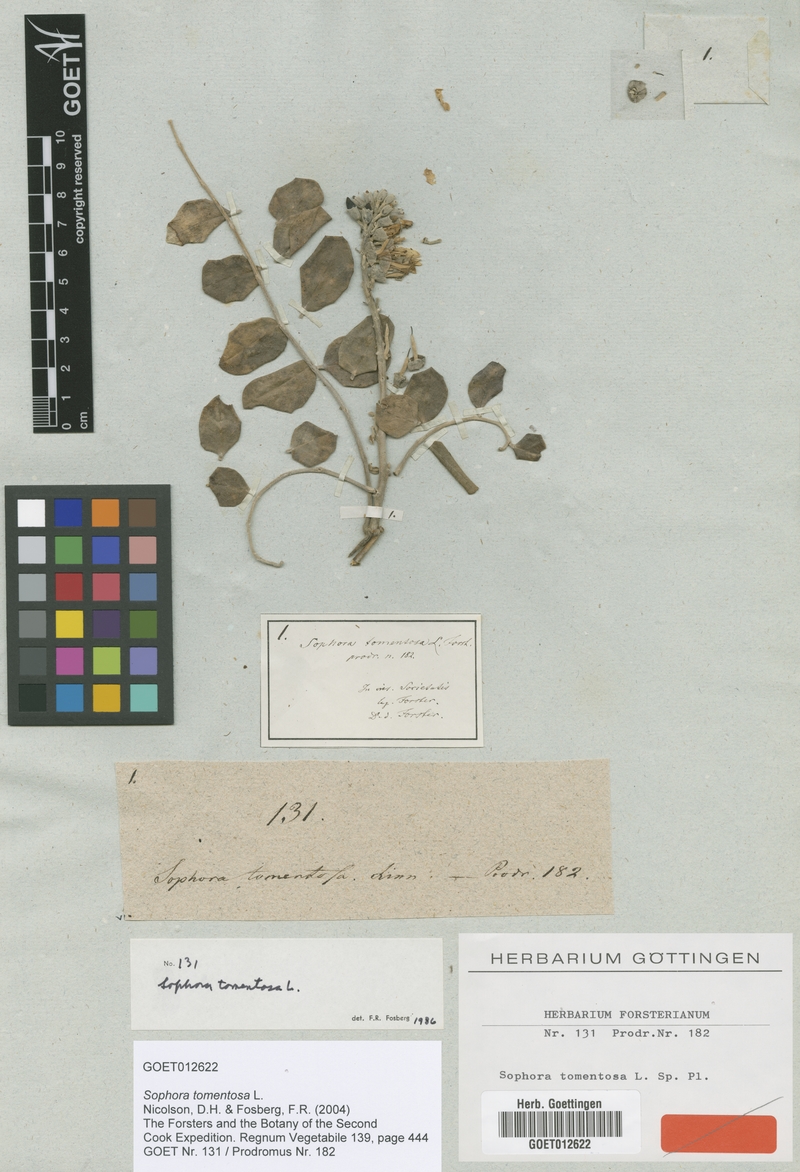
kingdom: Plantae
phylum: Tracheophyta
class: Magnoliopsida
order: Fabales
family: Fabaceae
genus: Sophora
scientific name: Sophora tomentosa
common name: Yellow necklacepod
